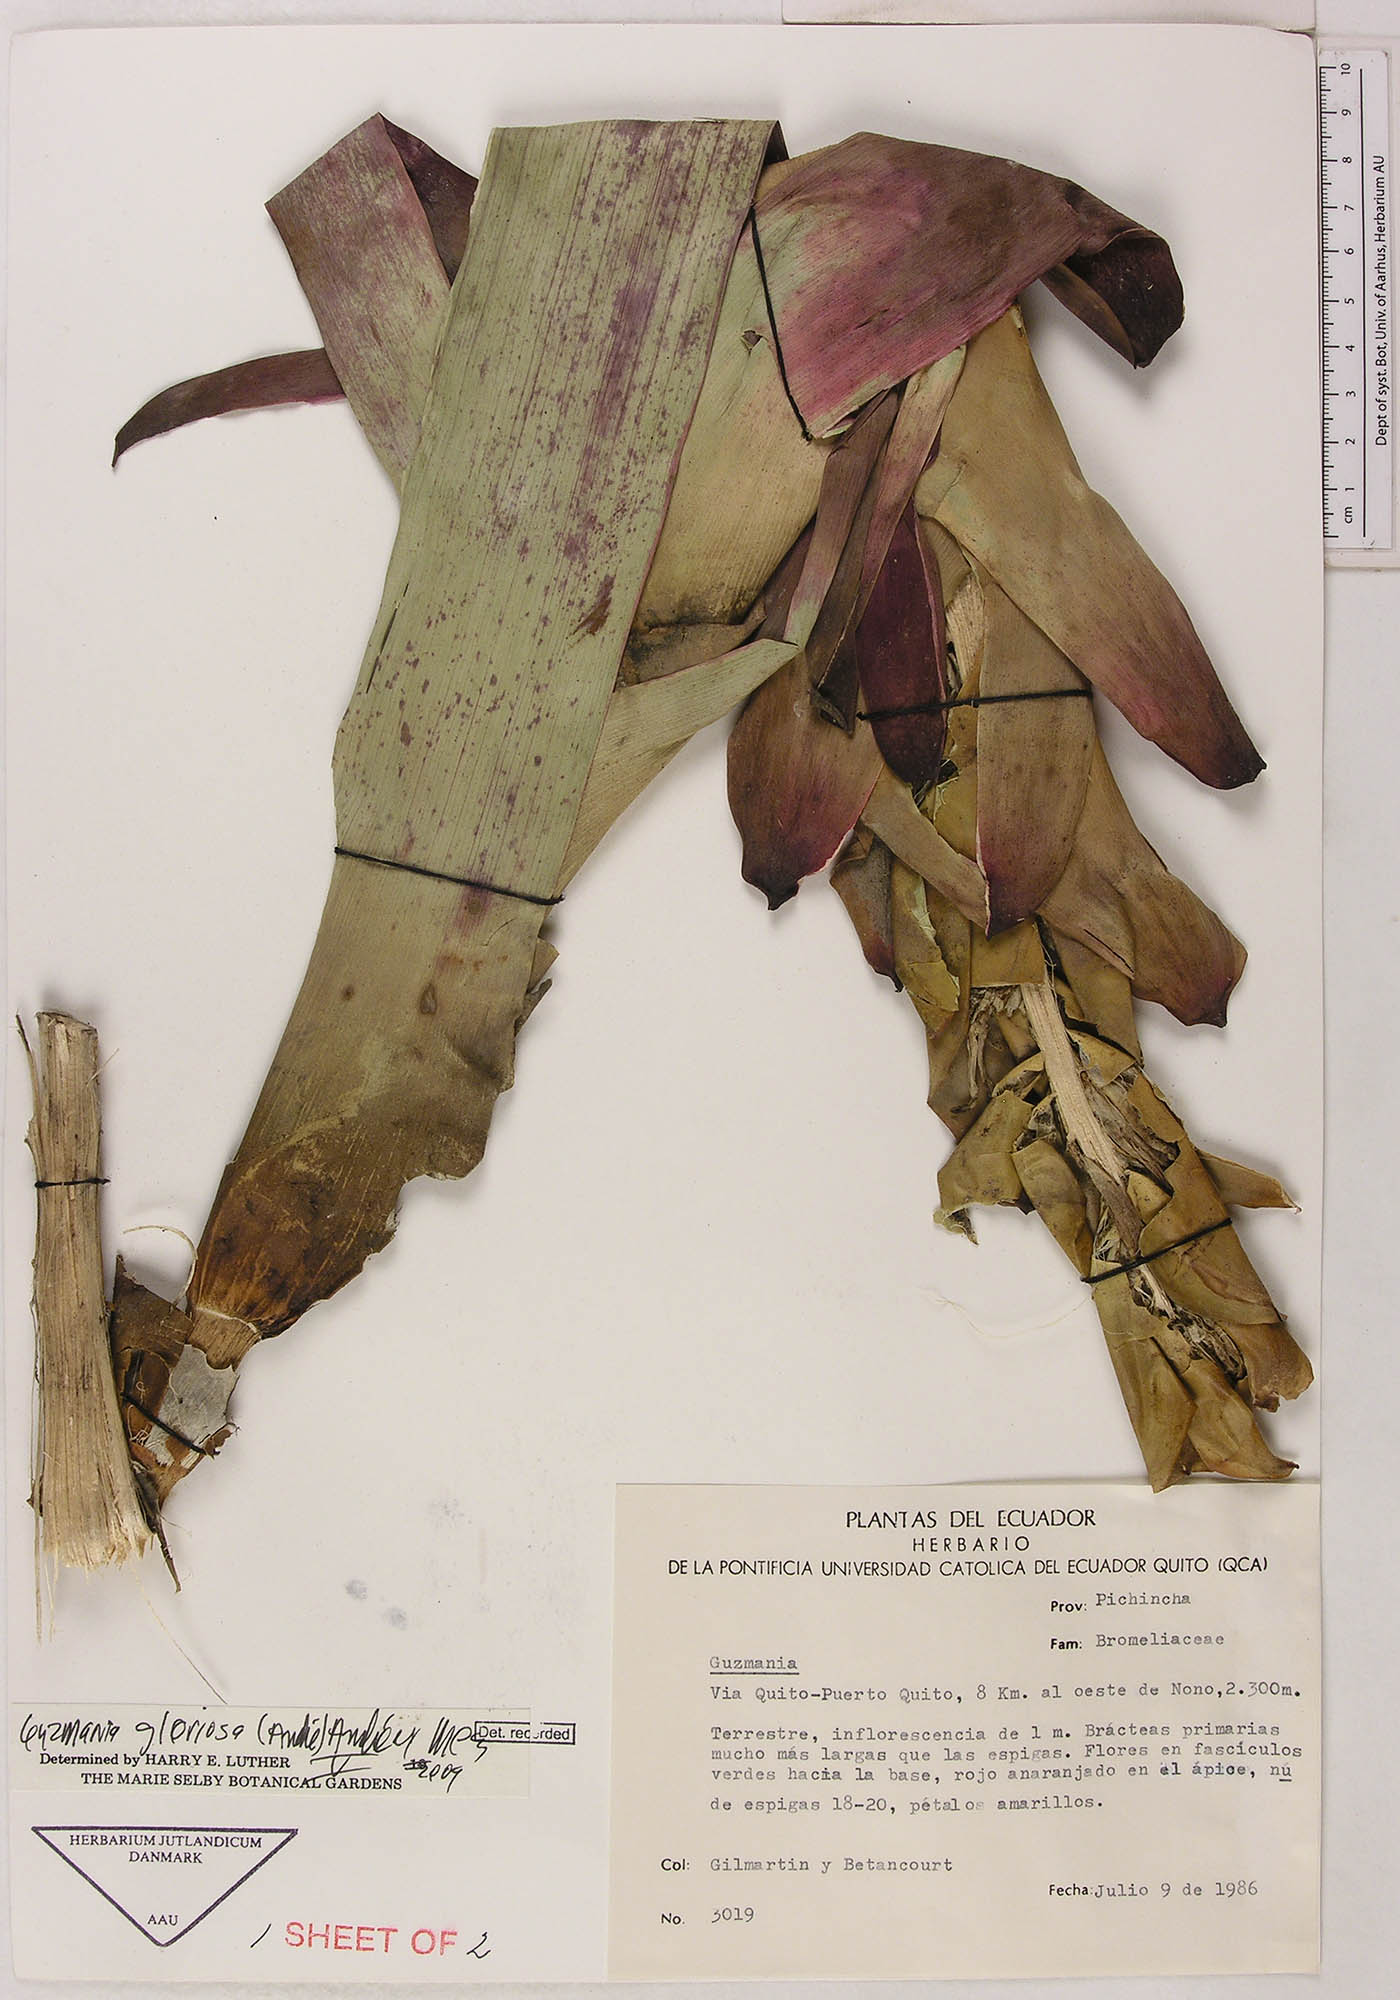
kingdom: Plantae
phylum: Tracheophyta
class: Liliopsida
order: Poales
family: Bromeliaceae
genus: Guzmania
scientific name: Guzmania gloriosa
